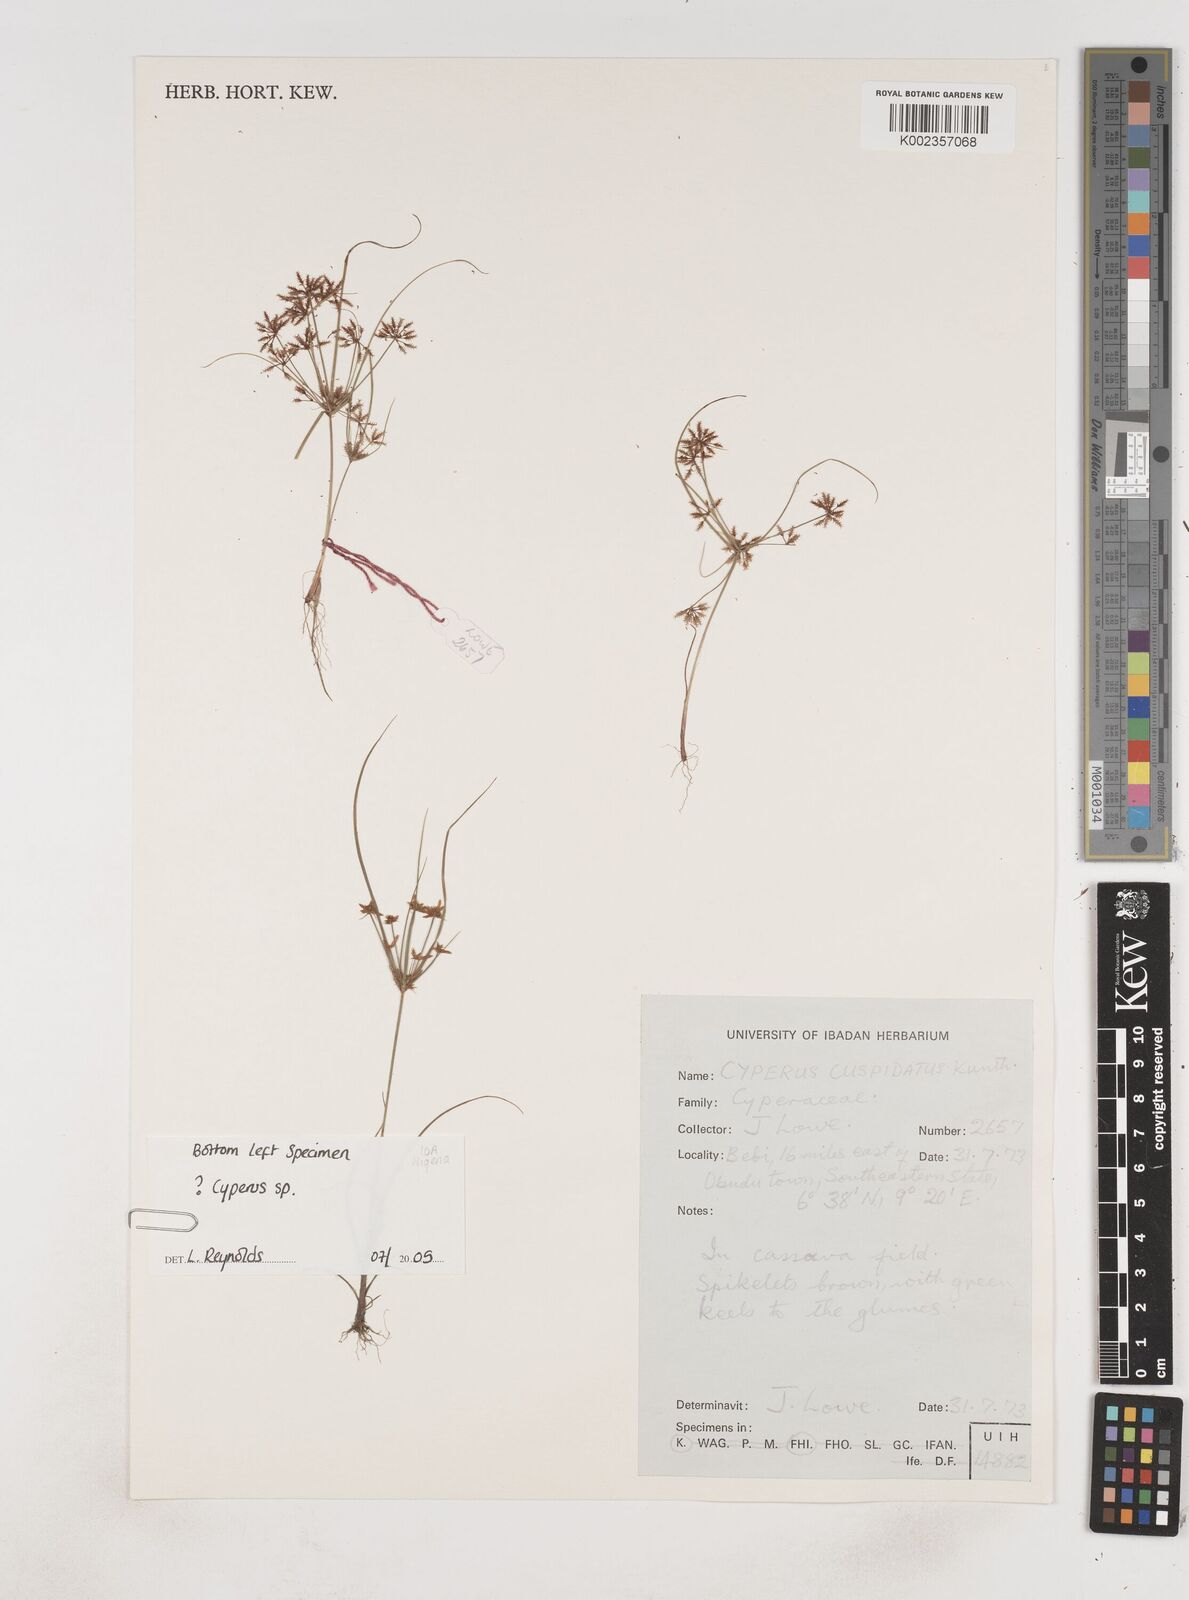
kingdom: Plantae
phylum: Tracheophyta
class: Liliopsida
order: Poales
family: Cyperaceae
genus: Cyperus
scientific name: Cyperus
